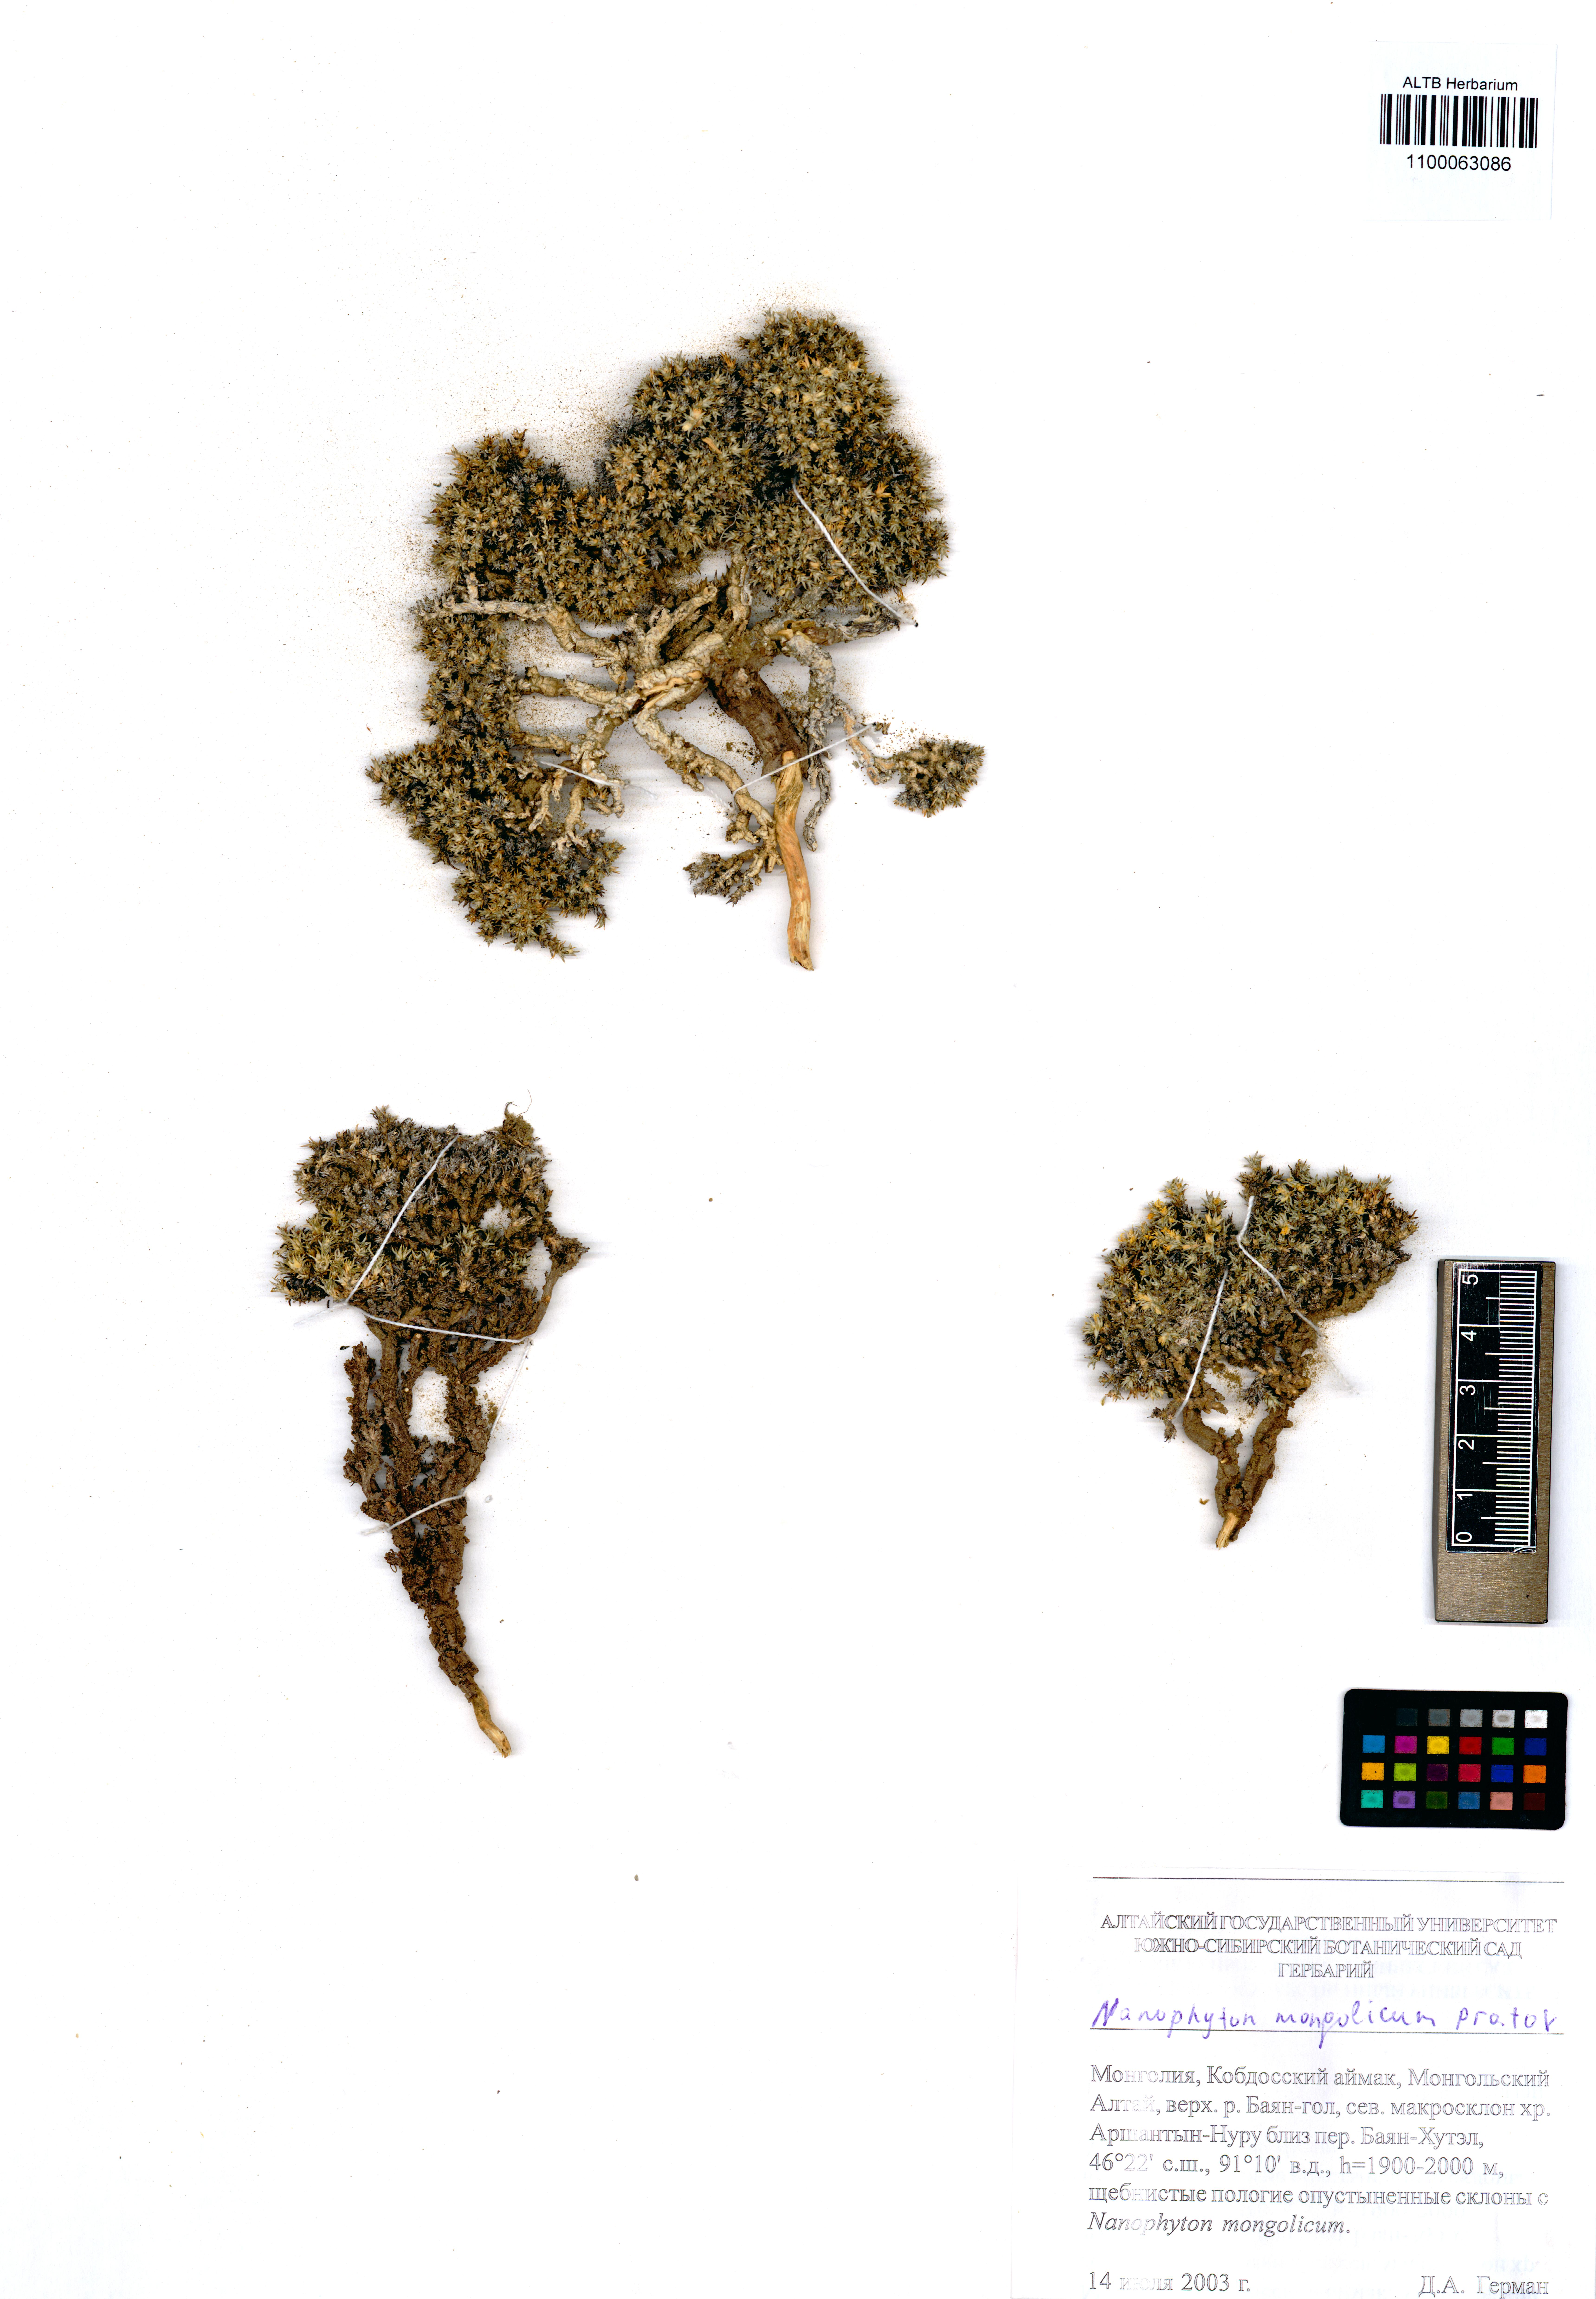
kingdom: Plantae
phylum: Tracheophyta
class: Magnoliopsida
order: Caryophyllales
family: Amaranthaceae
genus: Nanophyton
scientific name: Nanophyton mongolicum
